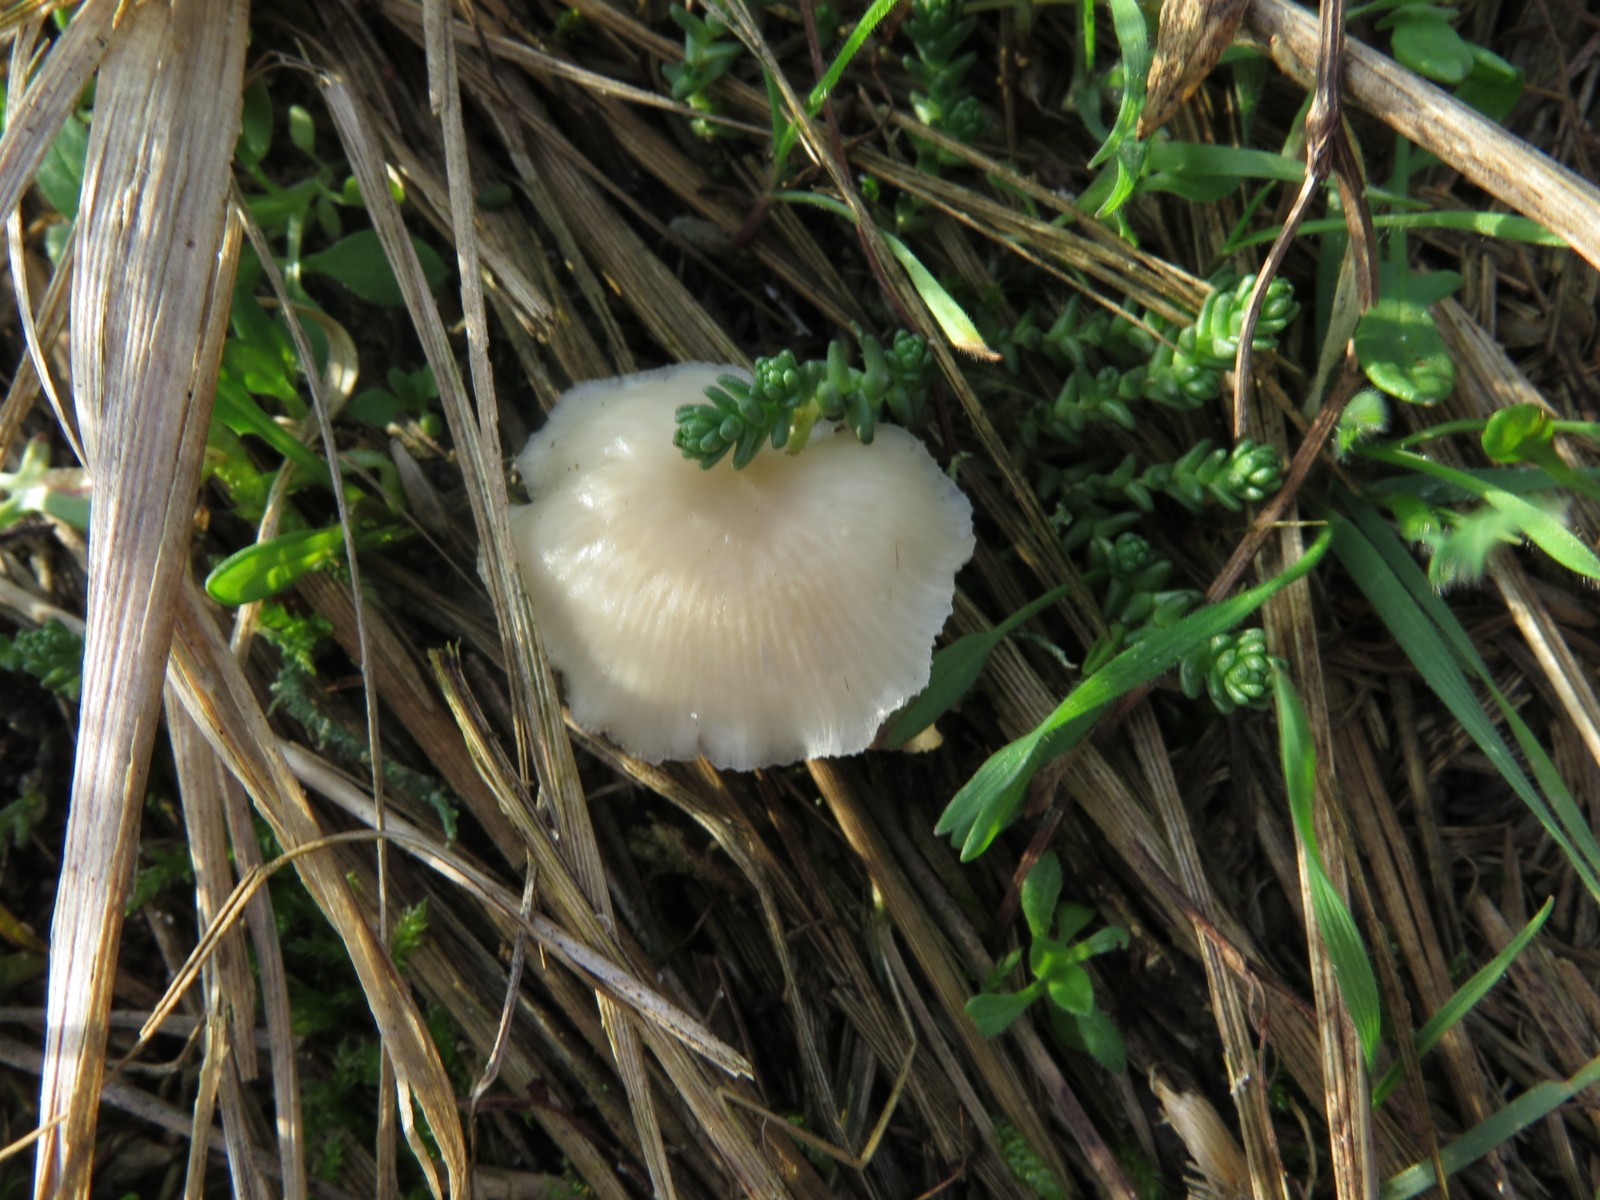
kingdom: Fungi
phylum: Basidiomycota
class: Agaricomycetes
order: Agaricales
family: Hygrophoraceae
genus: Cuphophyllus
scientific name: Cuphophyllus virgineus
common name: snehvid vokshat
